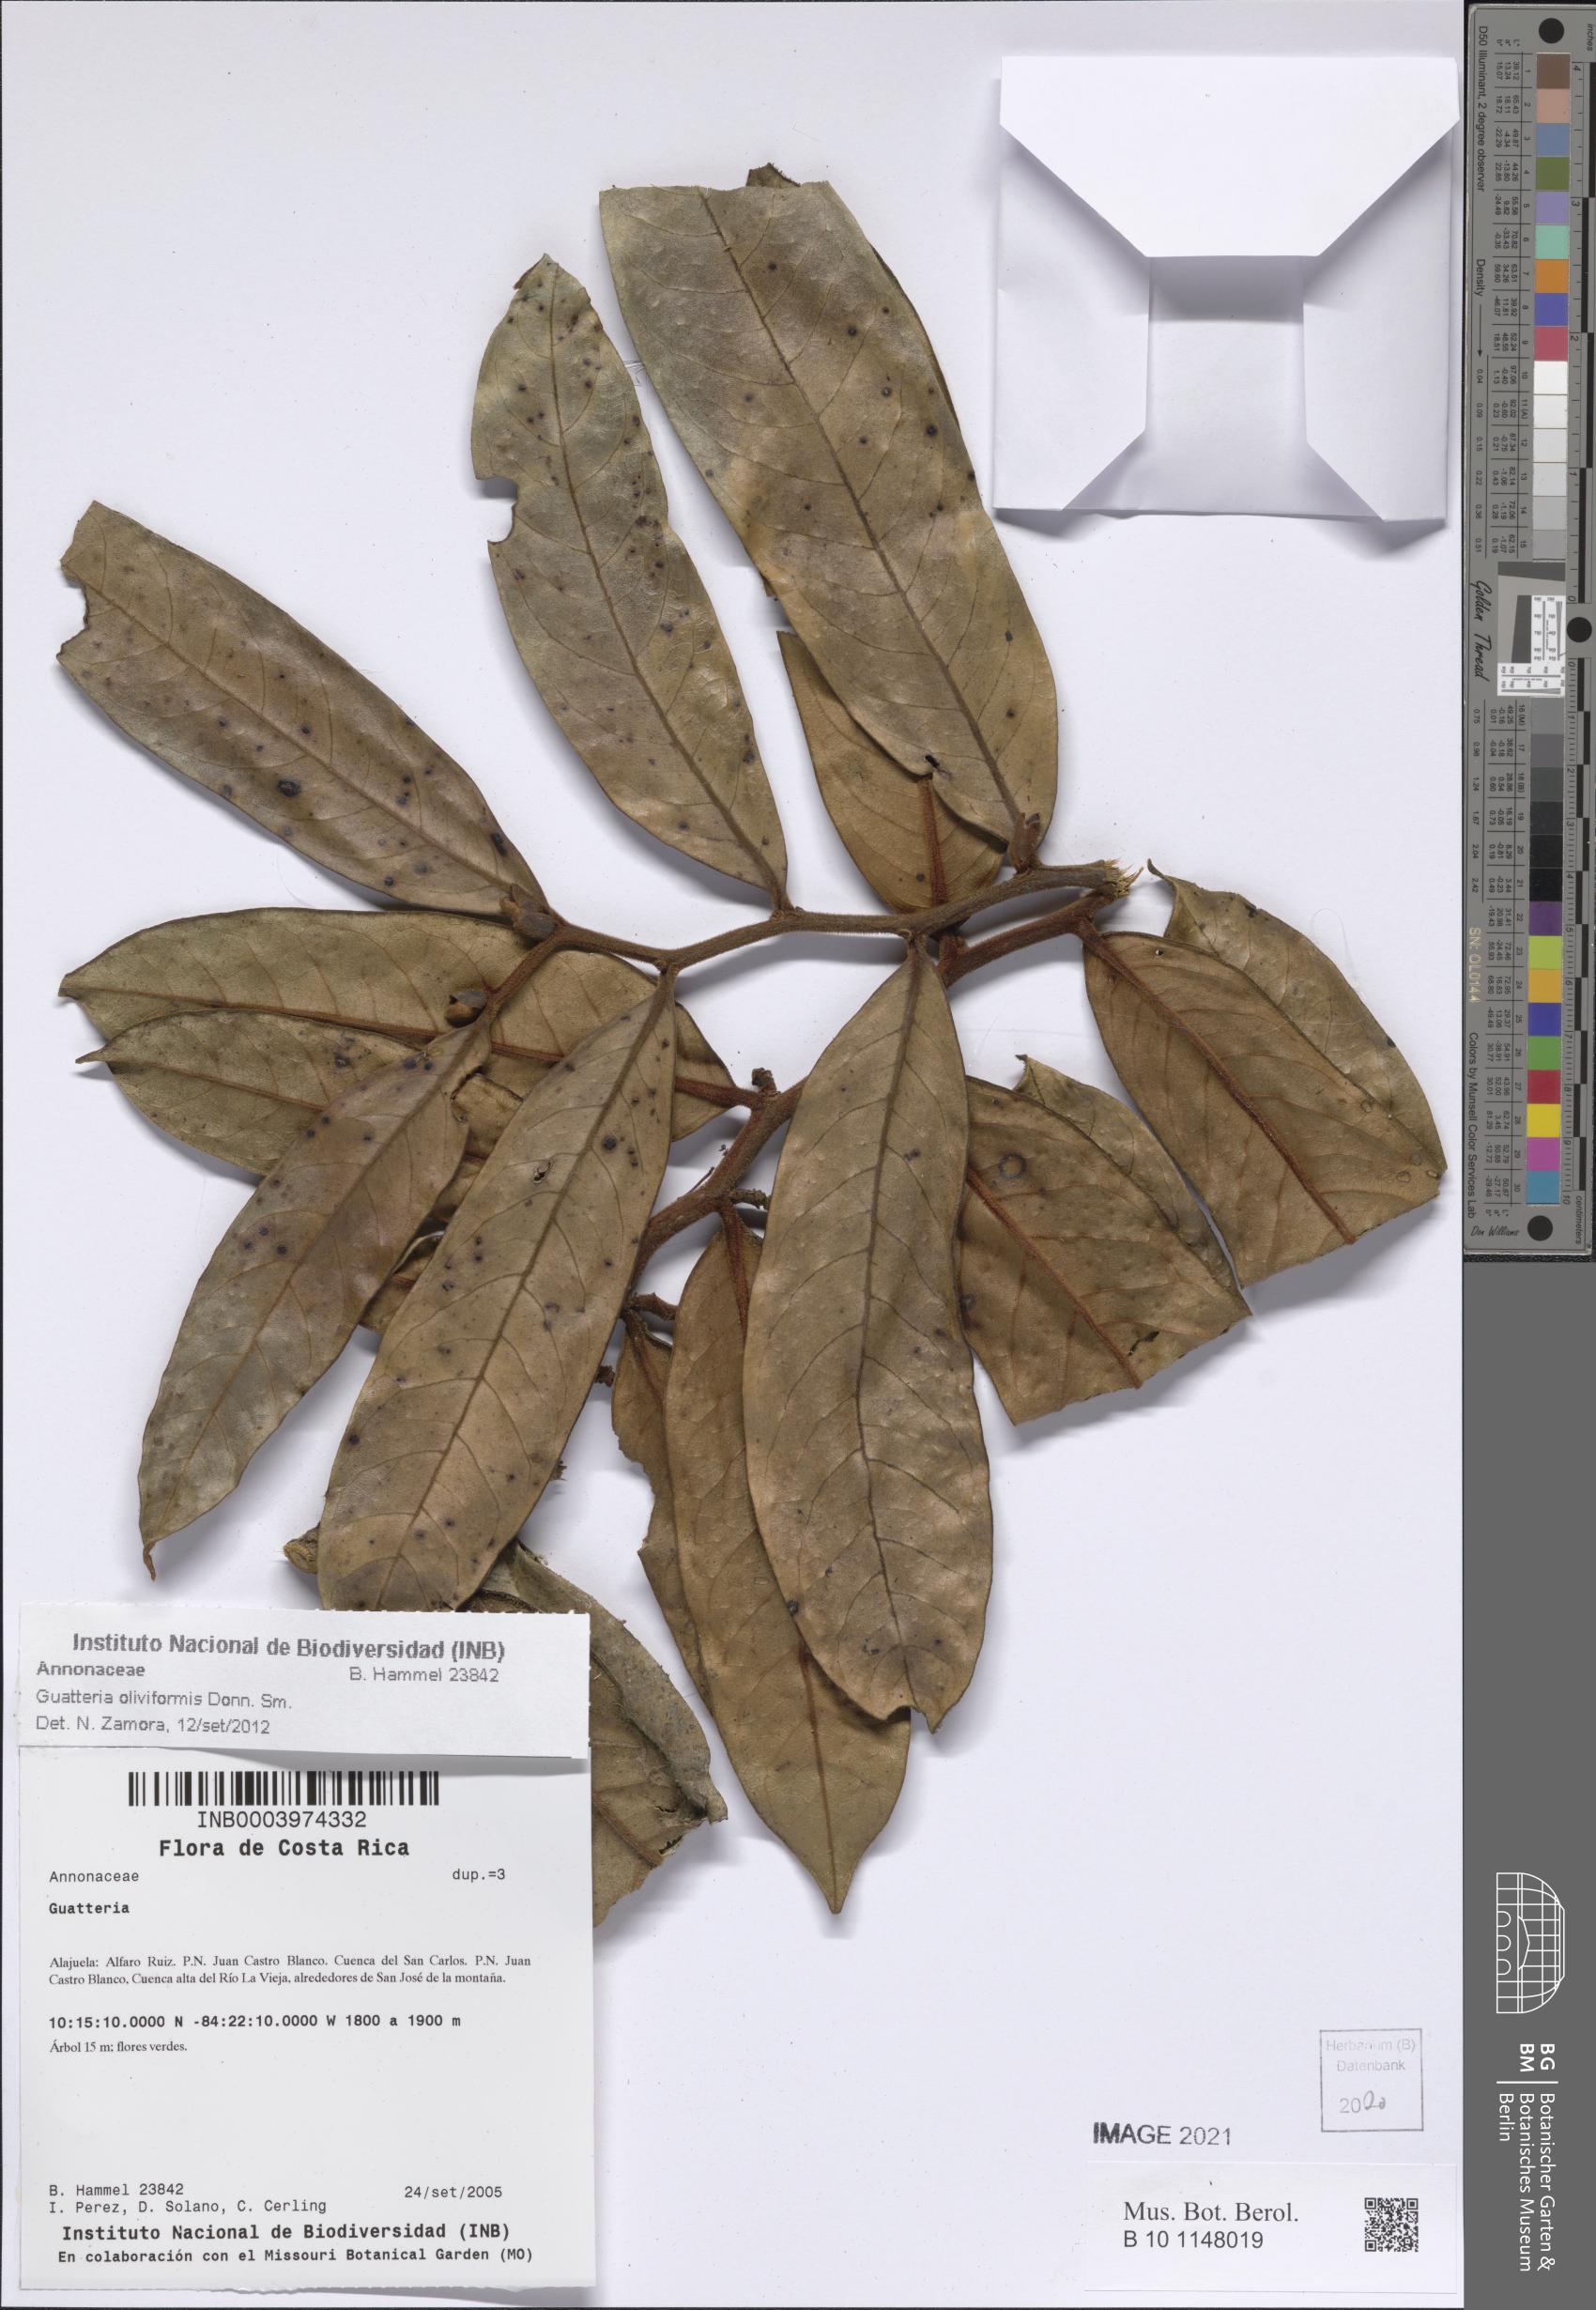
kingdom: Plantae
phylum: Tracheophyta
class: Magnoliopsida
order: Magnoliales
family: Annonaceae
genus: Guatteria
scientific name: Guatteria oliviformis
